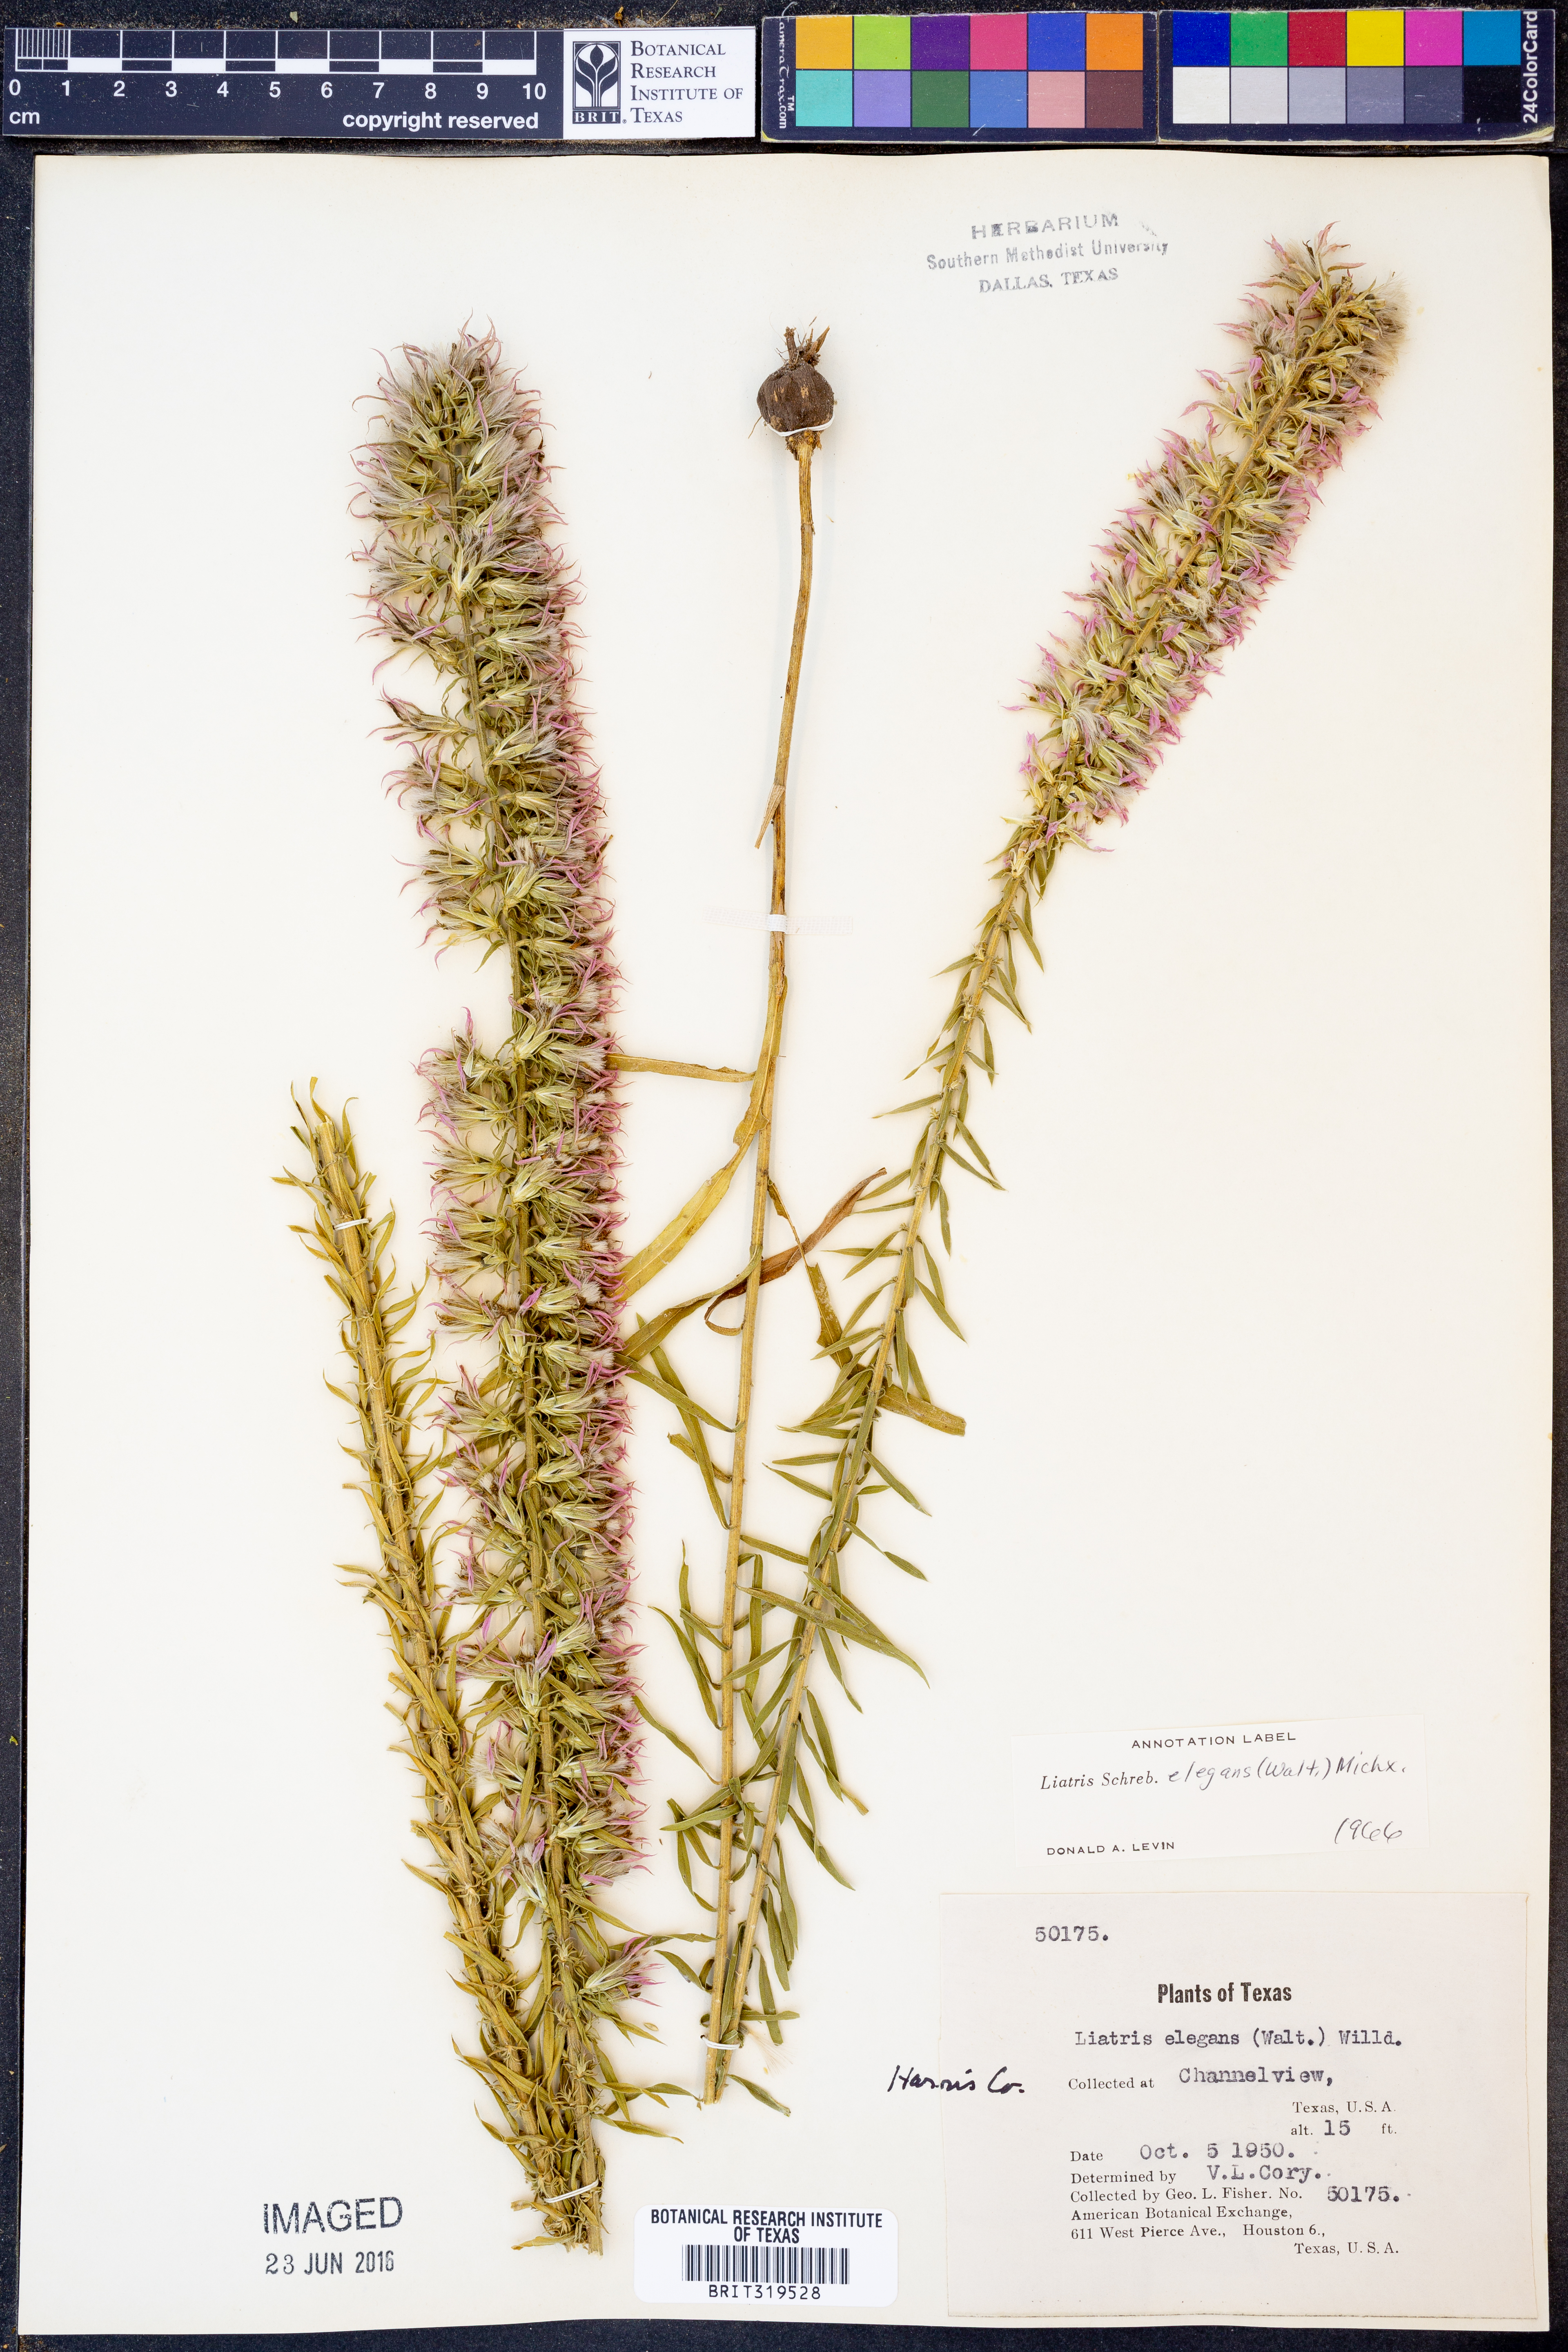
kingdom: Plantae
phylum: Tracheophyta
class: Magnoliopsida
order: Asterales
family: Asteraceae
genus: Liatris
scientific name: Liatris elegans
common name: Pinkscale gayfeather
